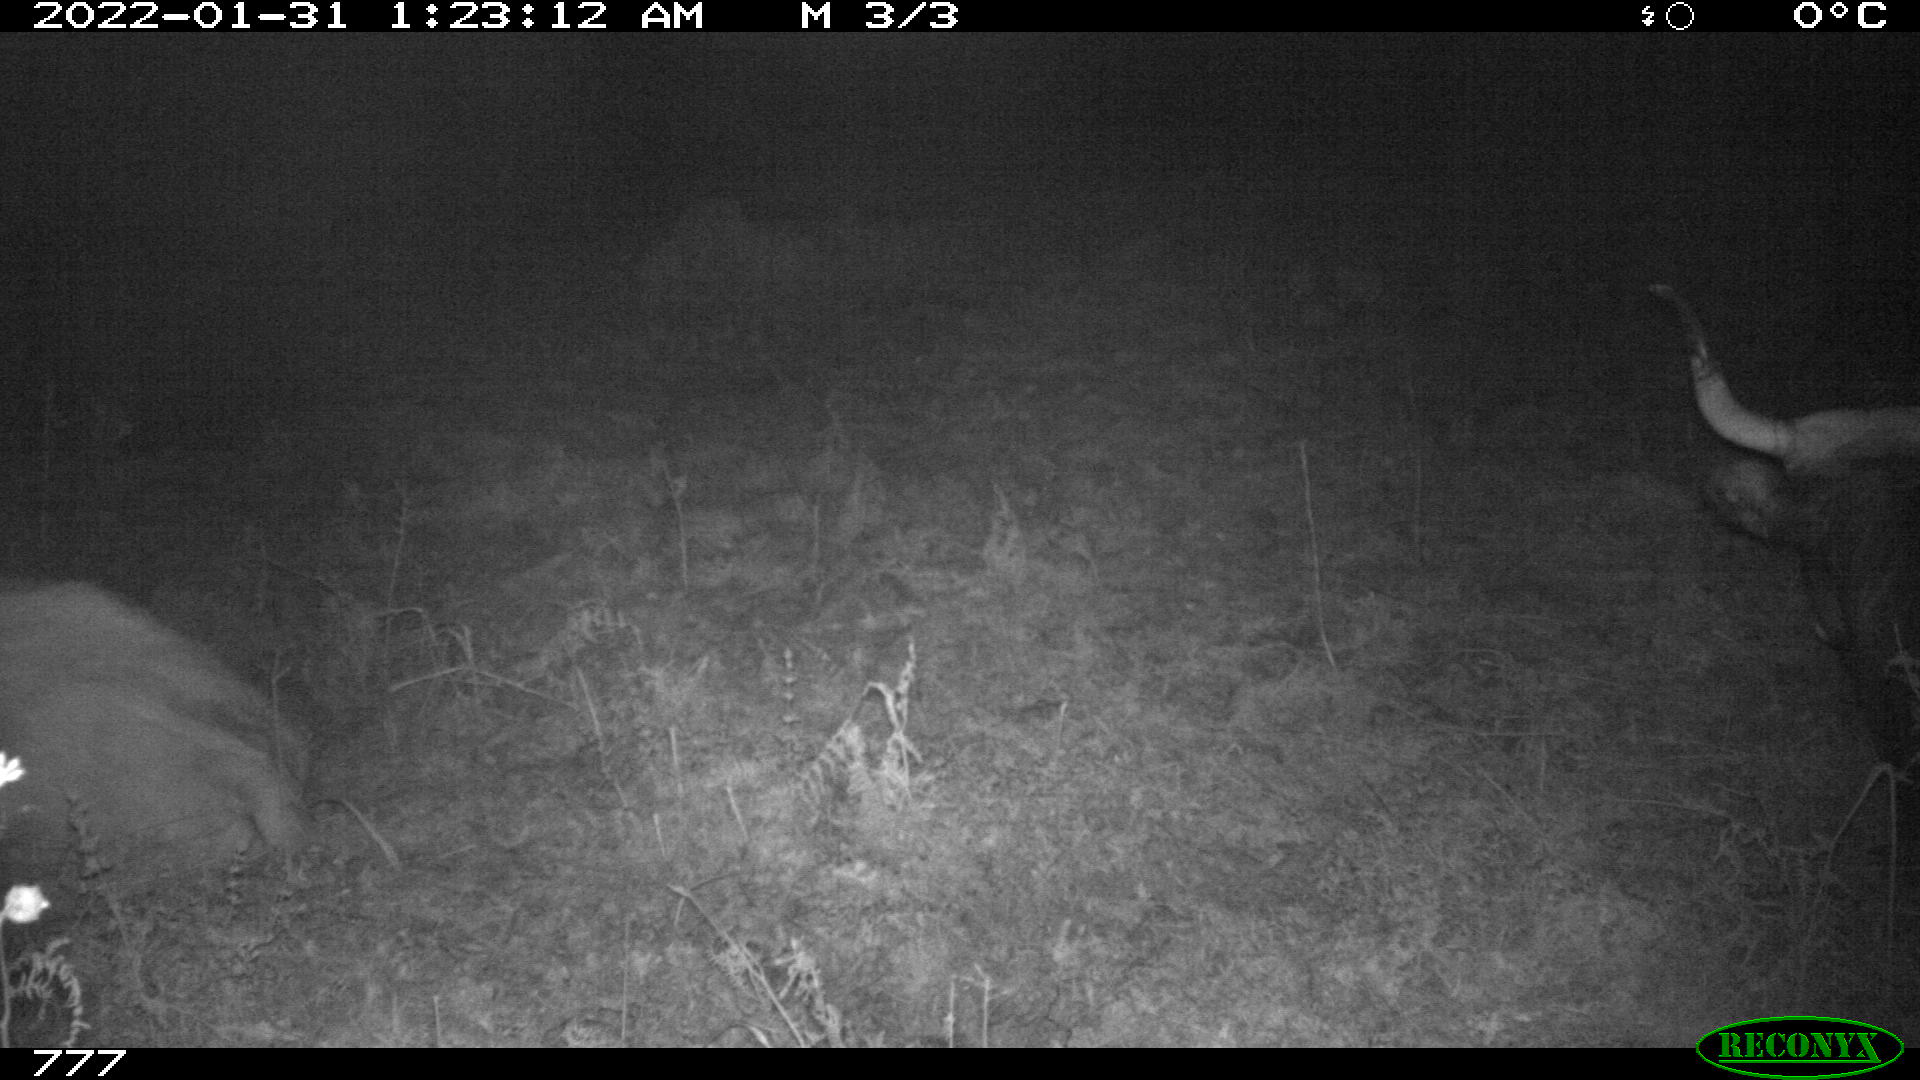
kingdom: Animalia
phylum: Chordata
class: Mammalia
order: Artiodactyla
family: Bovidae
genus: Bos
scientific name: Bos taurus
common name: Domesticated cattle
